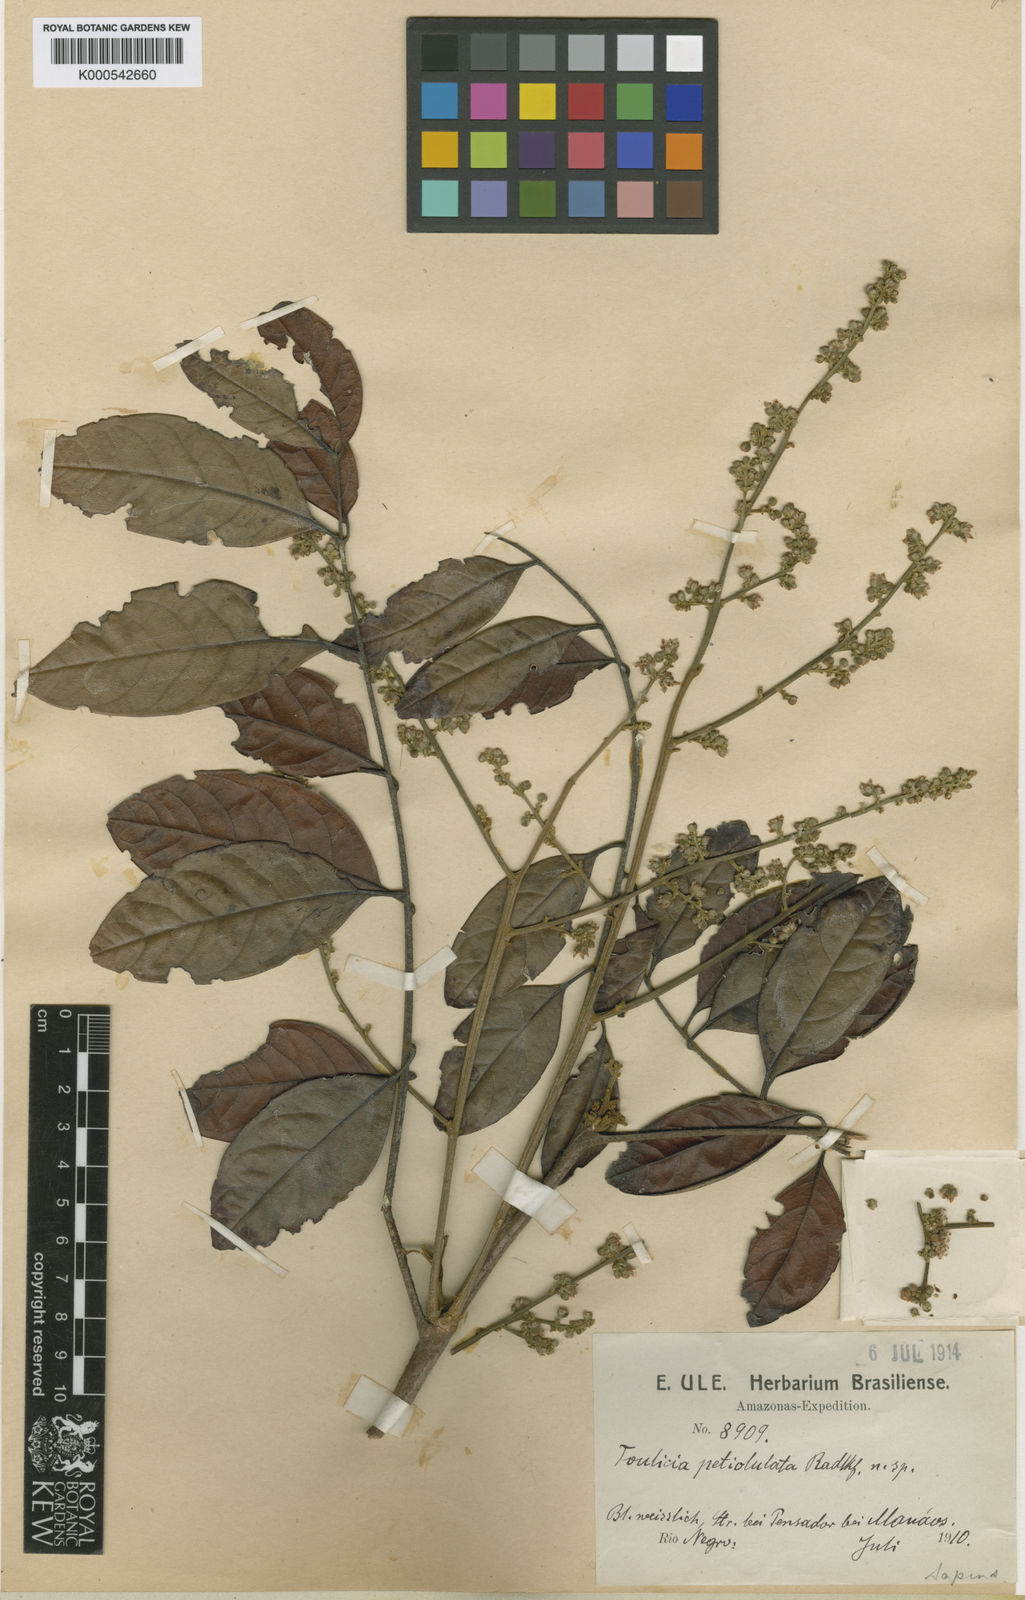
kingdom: Plantae
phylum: Tracheophyta
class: Magnoliopsida
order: Sapindales
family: Sapindaceae
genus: Toulicia
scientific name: Toulicia petiolulata
